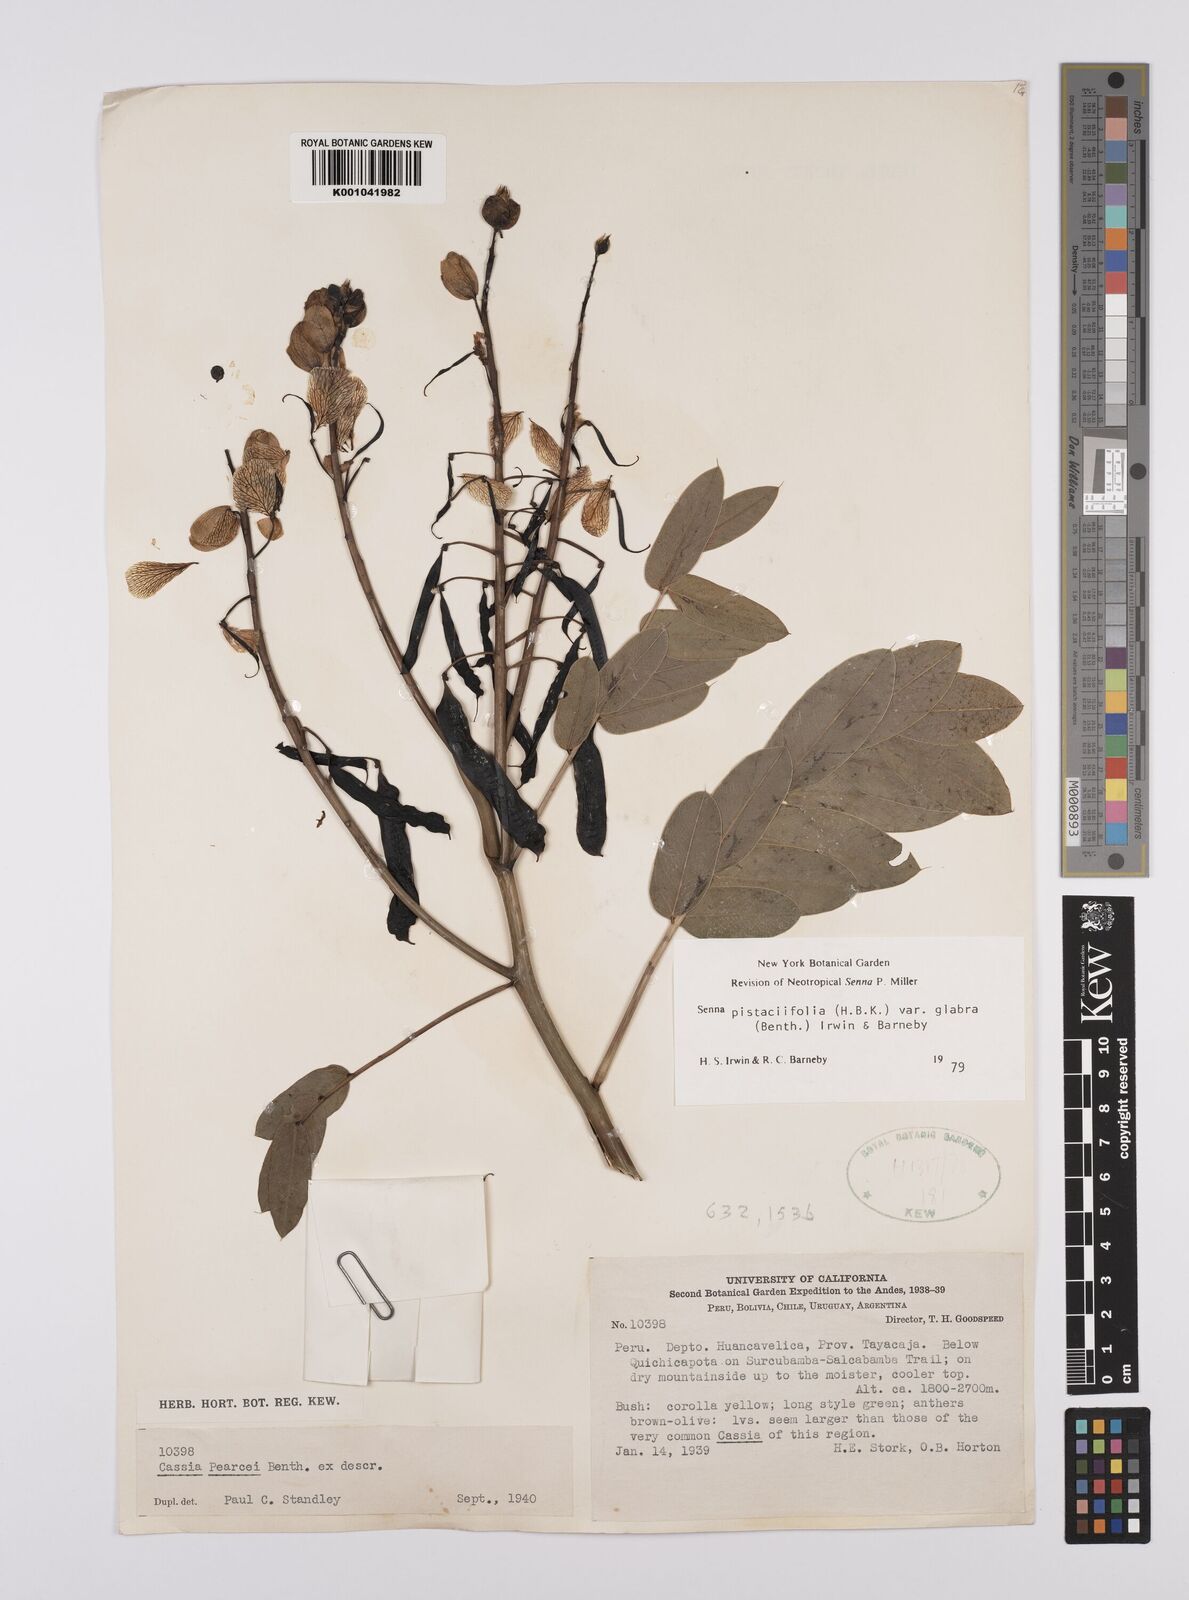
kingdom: Plantae
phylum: Tracheophyta
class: Magnoliopsida
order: Fabales
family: Fabaceae
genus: Senna
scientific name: Senna
